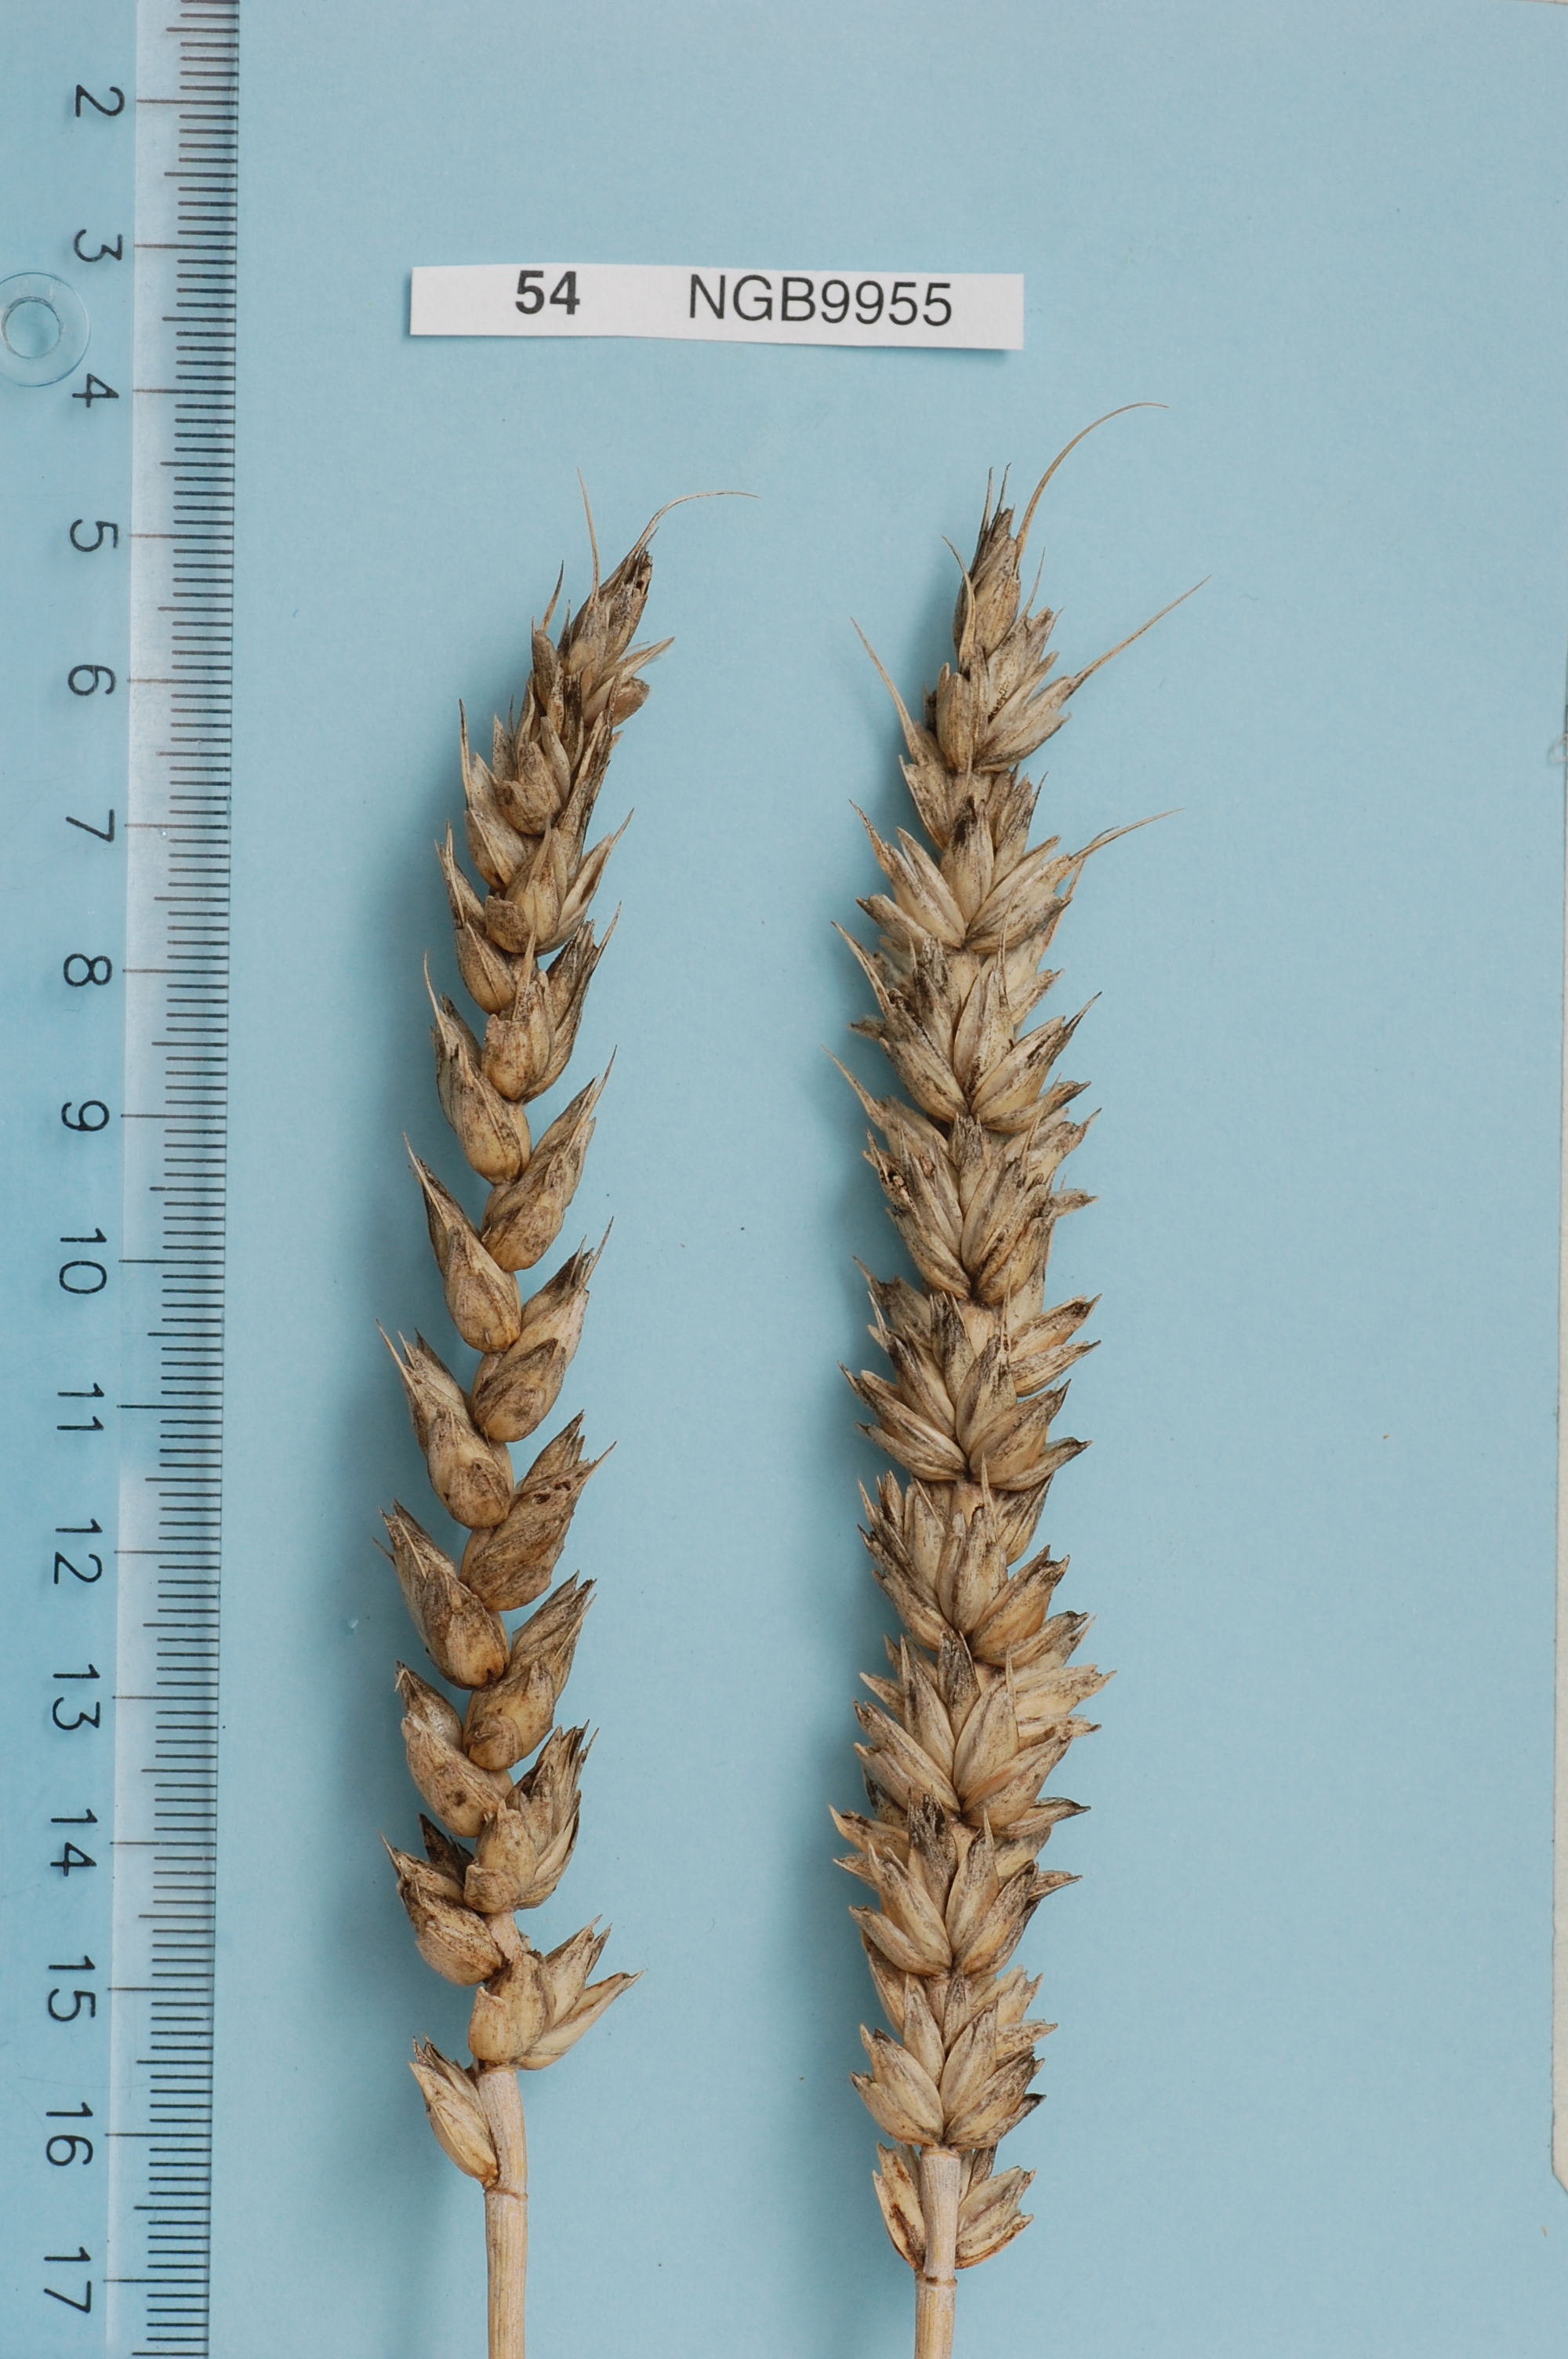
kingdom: Plantae
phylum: Tracheophyta
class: Liliopsida
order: Poales
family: Poaceae
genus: Triticum
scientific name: Triticum aestivum
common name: Common wheat
